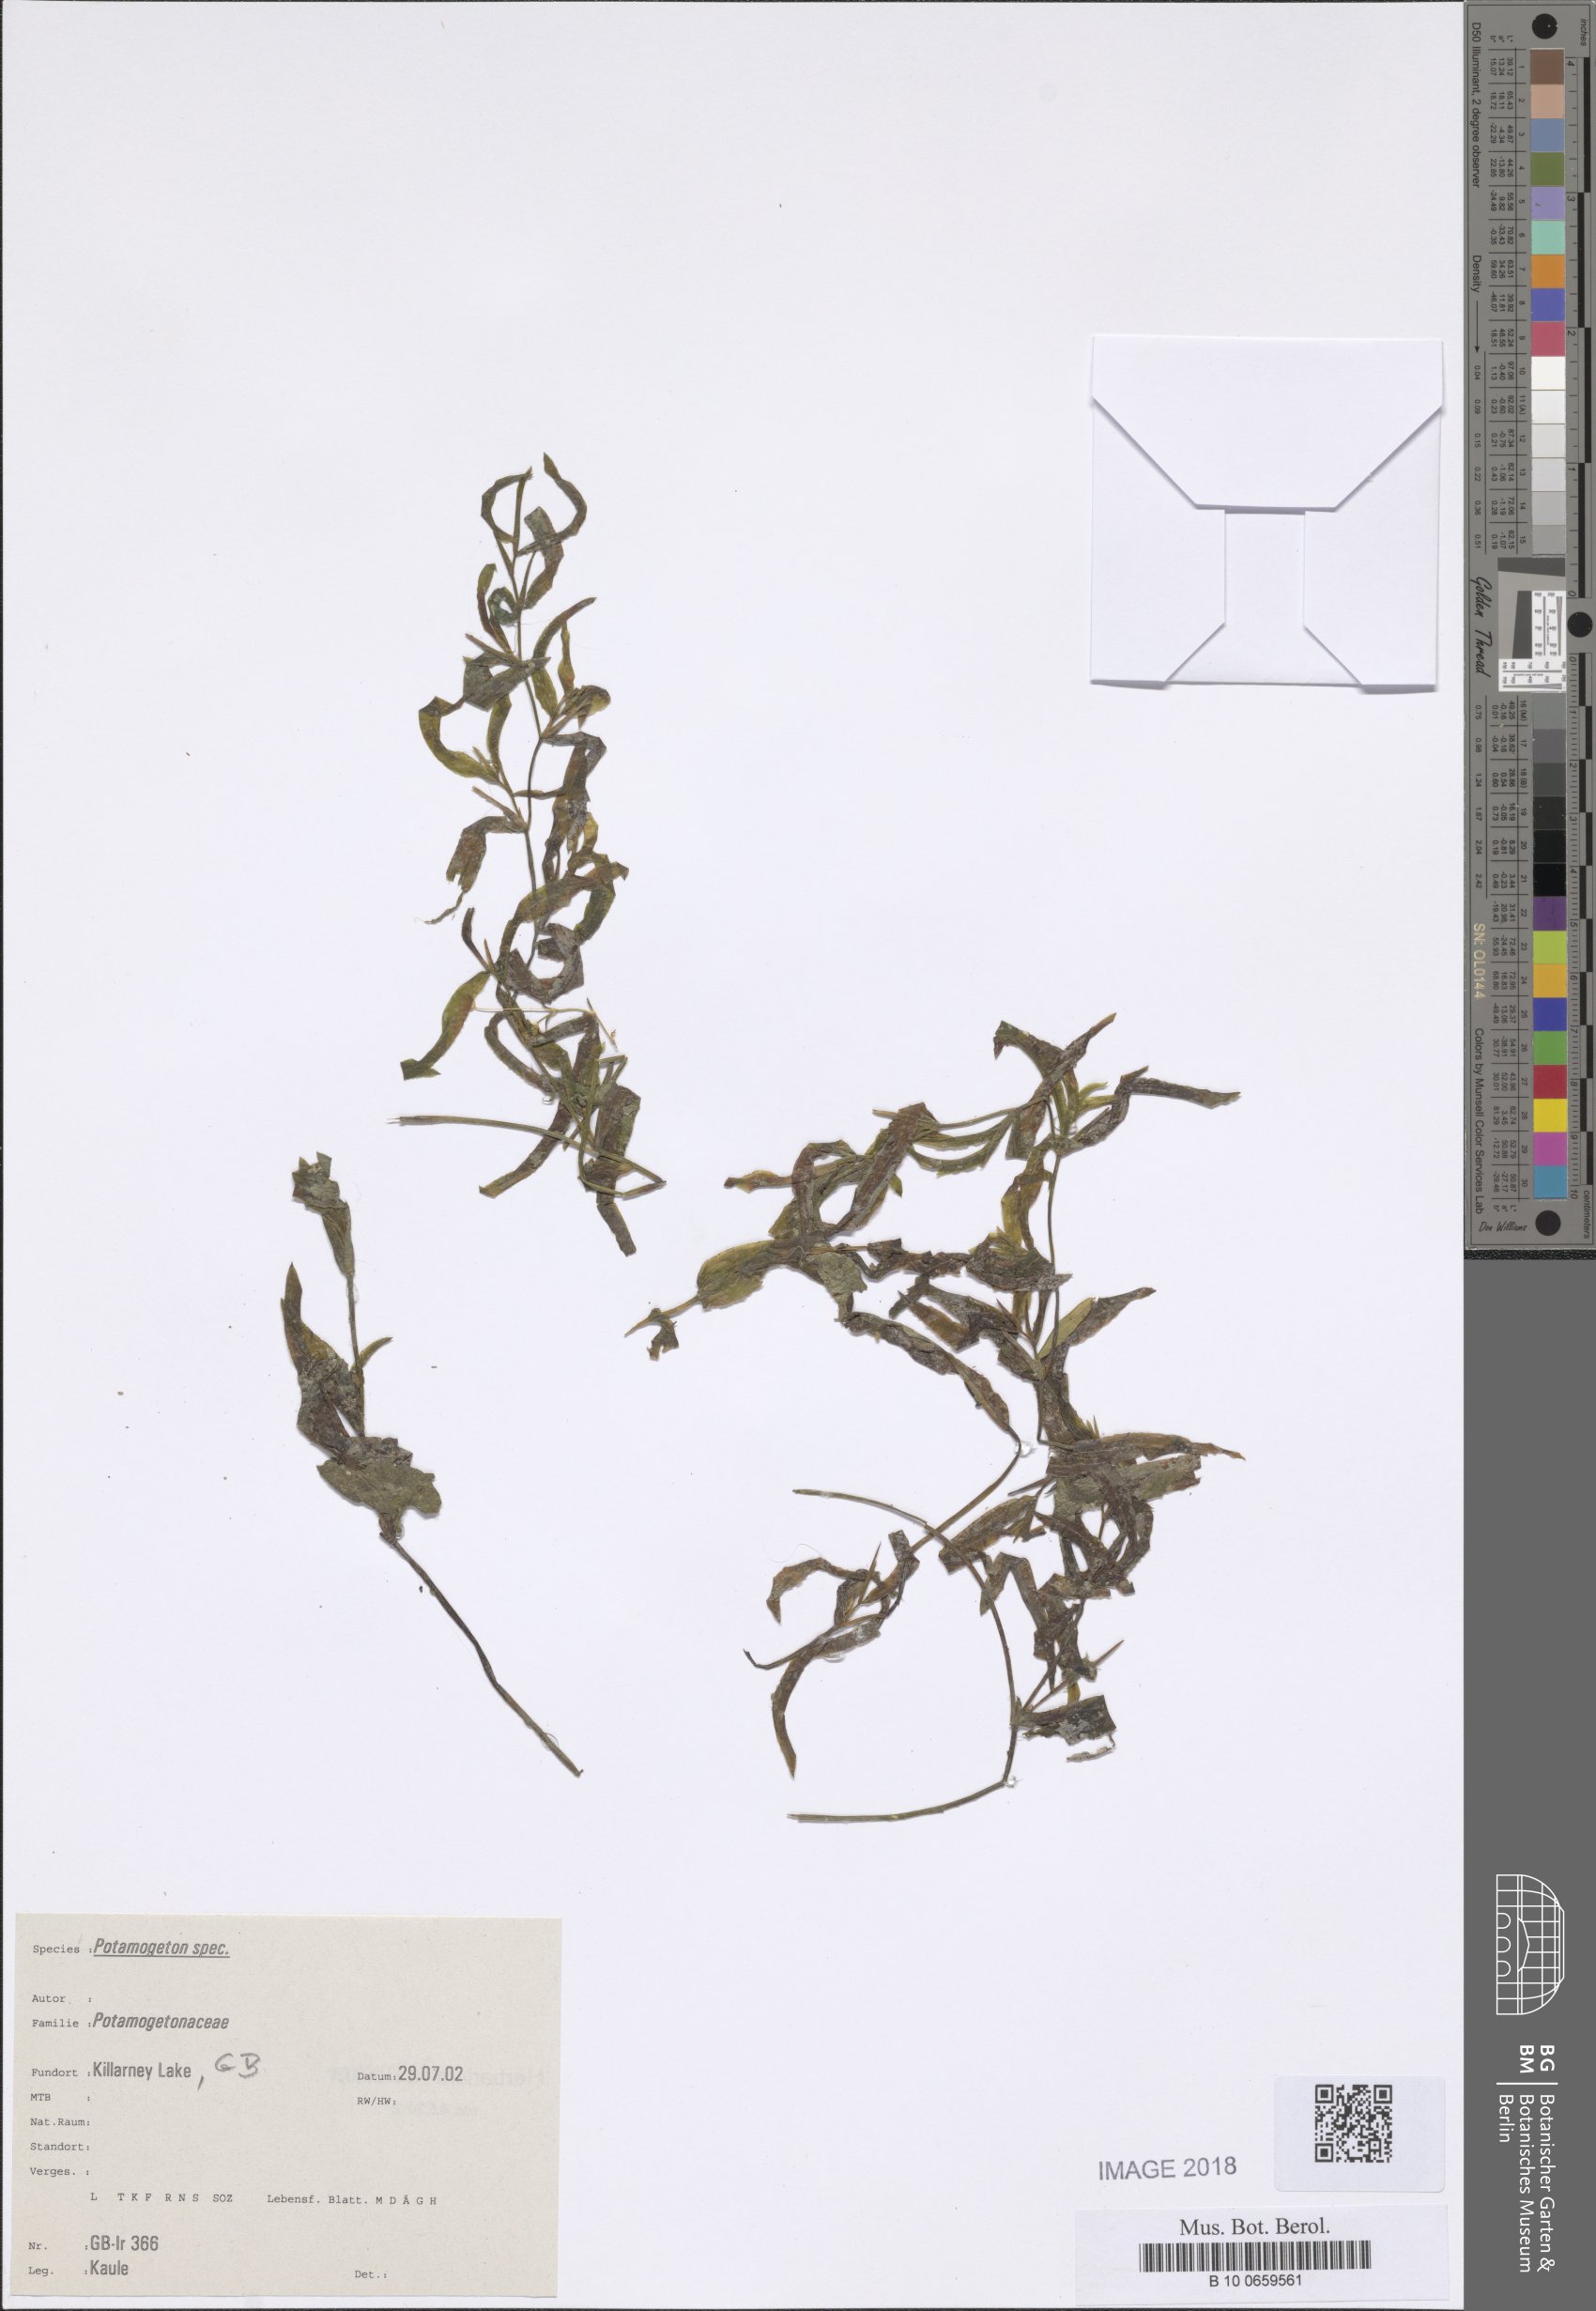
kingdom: Plantae
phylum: Tracheophyta
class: Liliopsida
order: Alismatales
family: Potamogetonaceae
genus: Potamogeton
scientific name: Potamogeton gramineus
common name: Various-leaved pondweed
